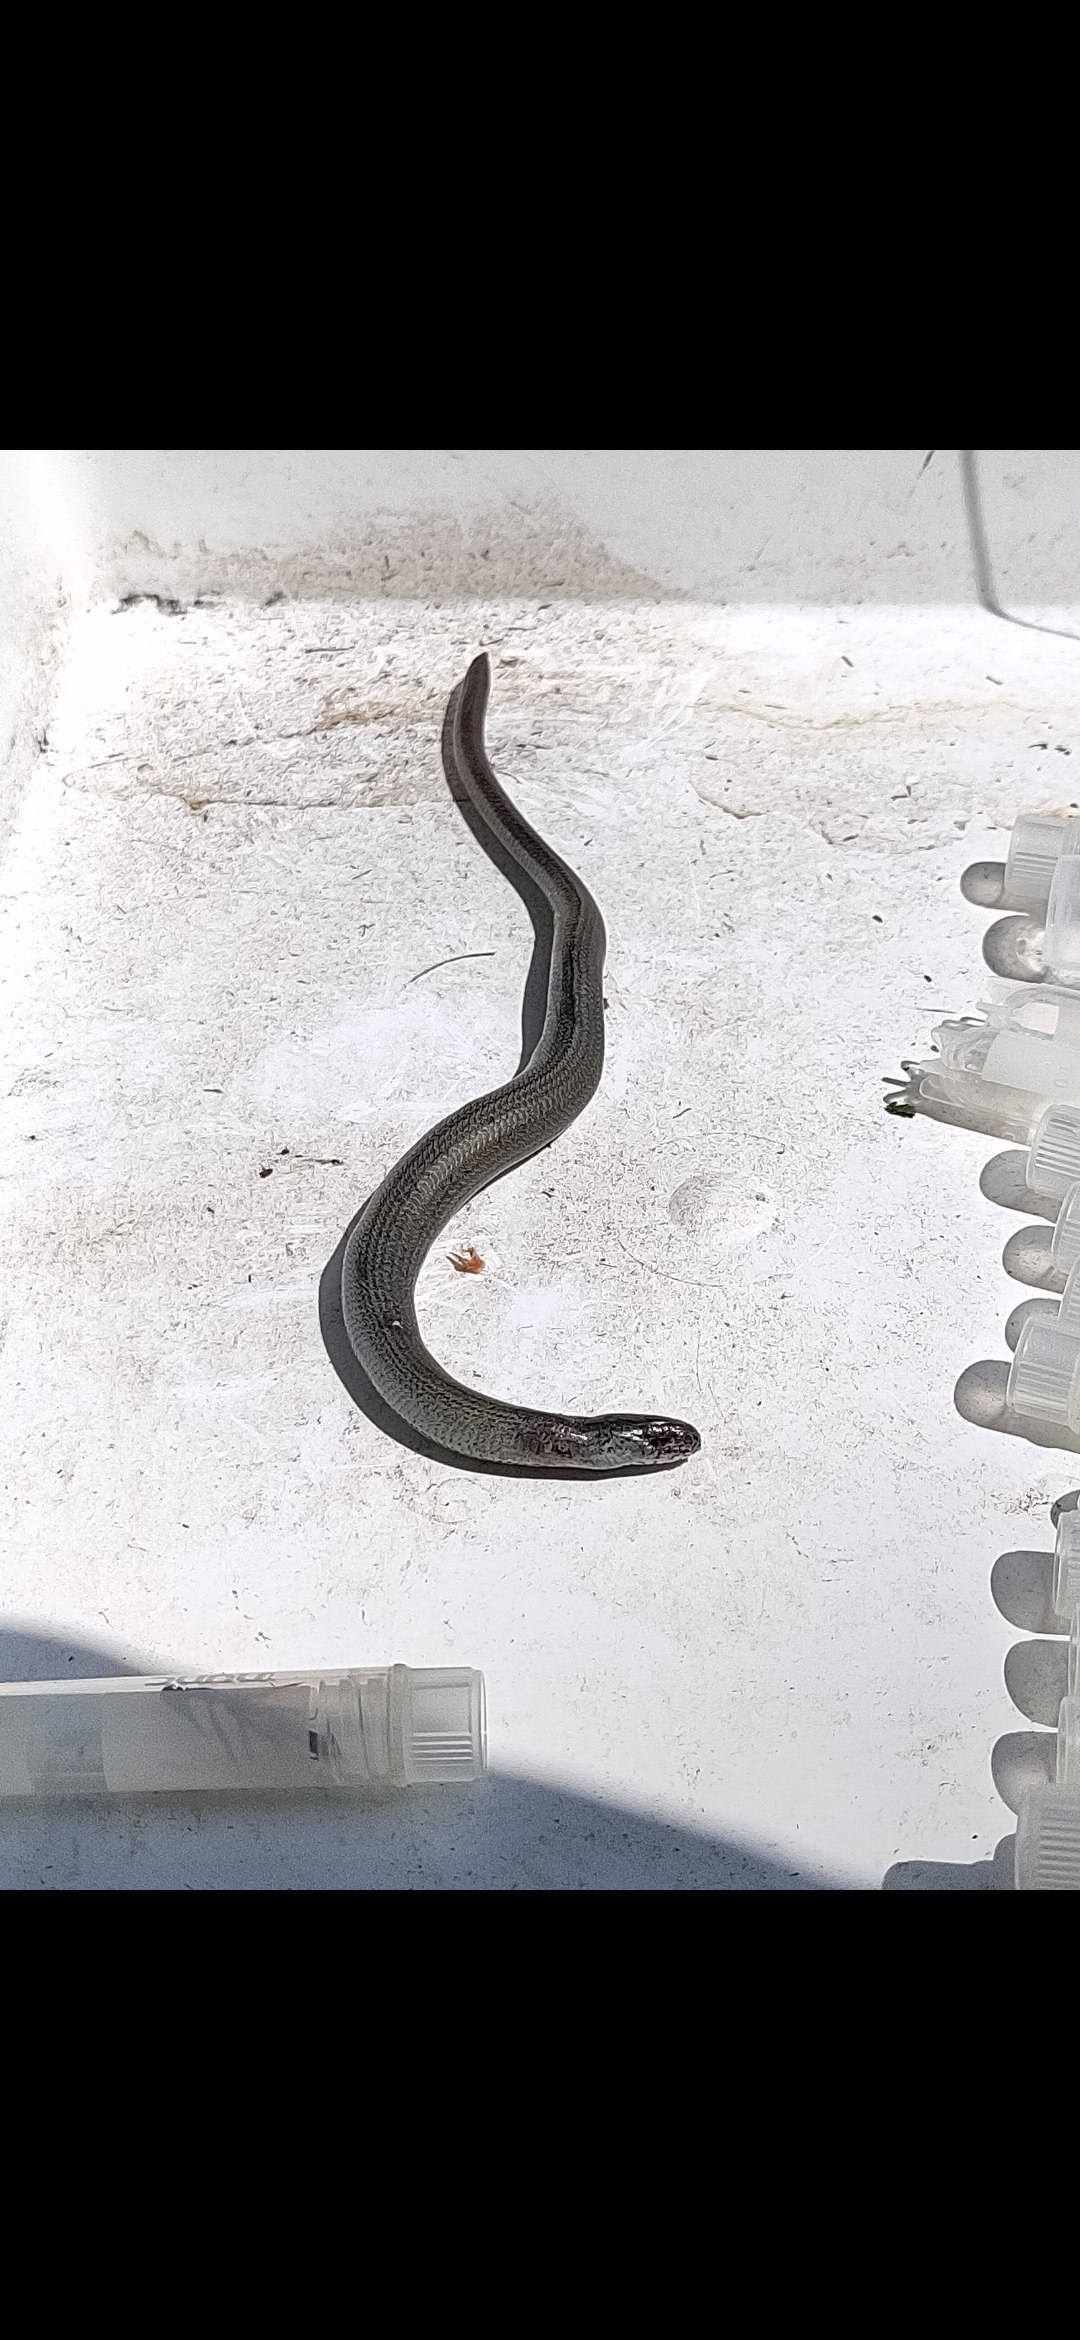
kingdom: Animalia
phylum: Chordata
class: Squamata
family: Anguidae
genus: Anguis
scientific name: Anguis fragilis
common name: Stålorm
